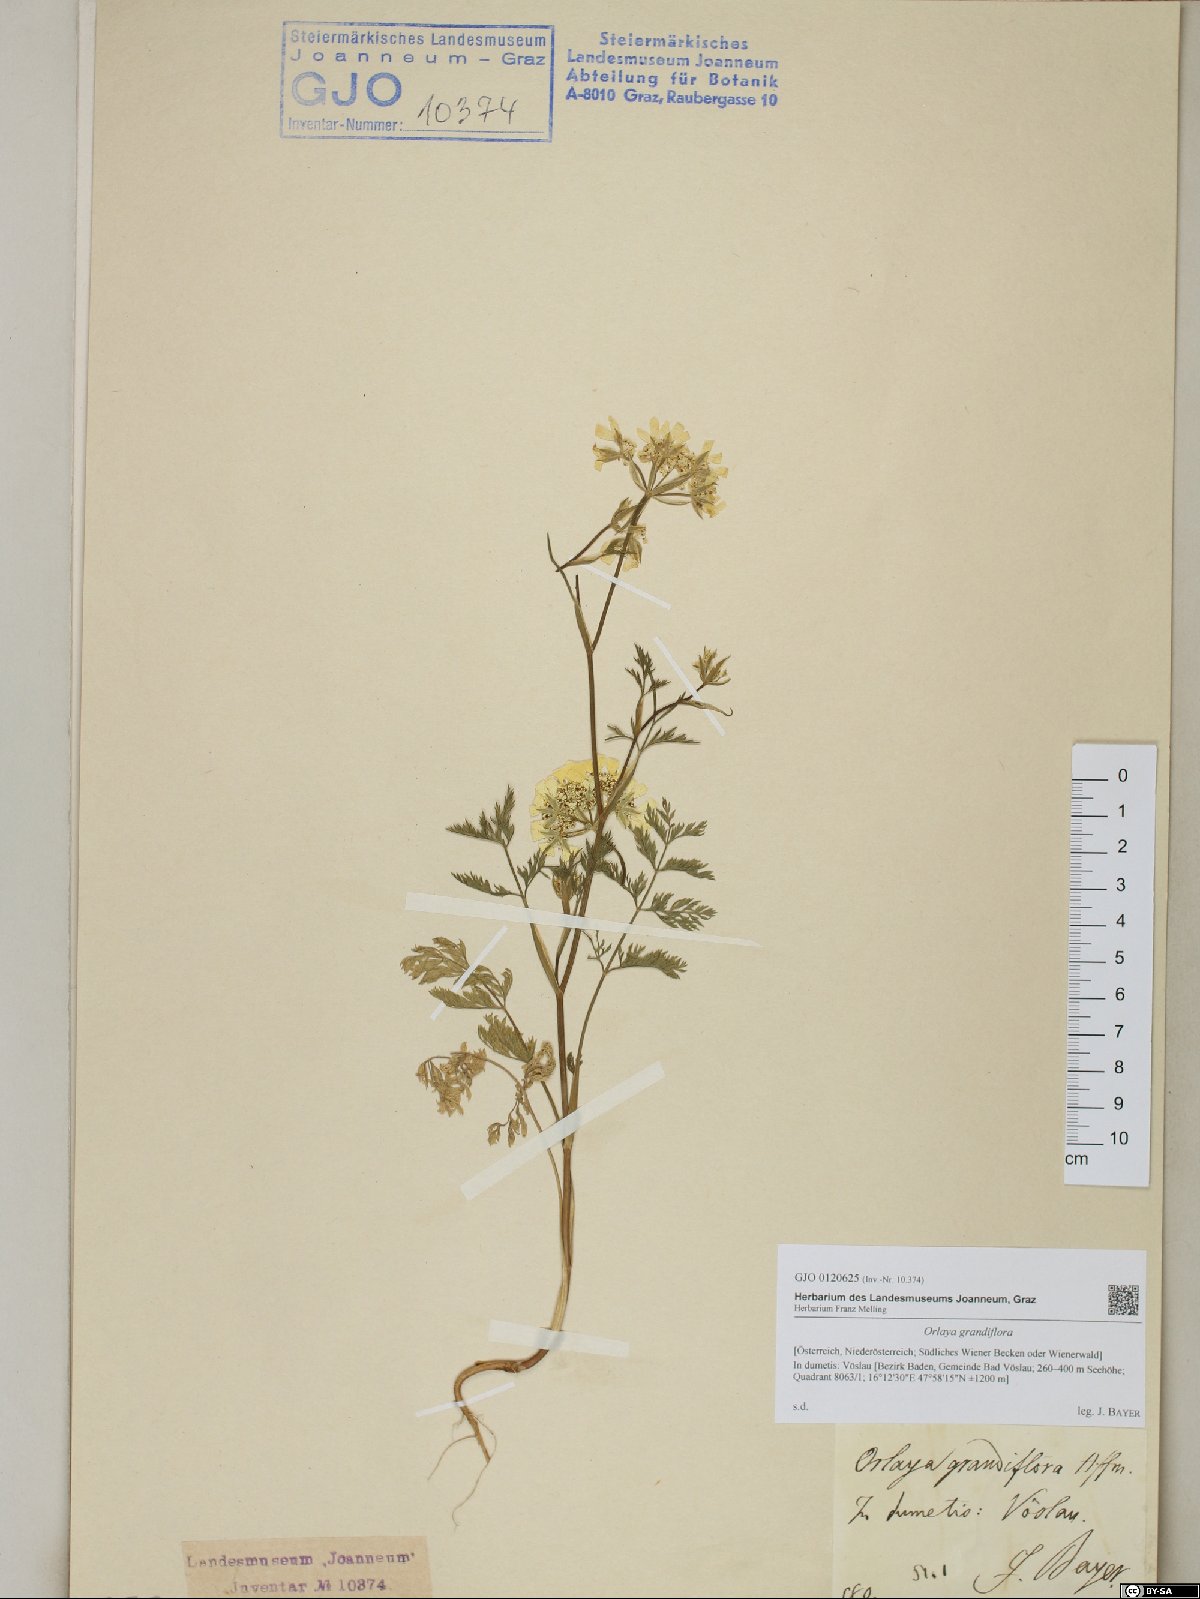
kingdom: Plantae
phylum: Tracheophyta
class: Magnoliopsida
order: Apiales
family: Apiaceae
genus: Orlaya
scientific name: Orlaya grandiflora
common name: White lace flower
